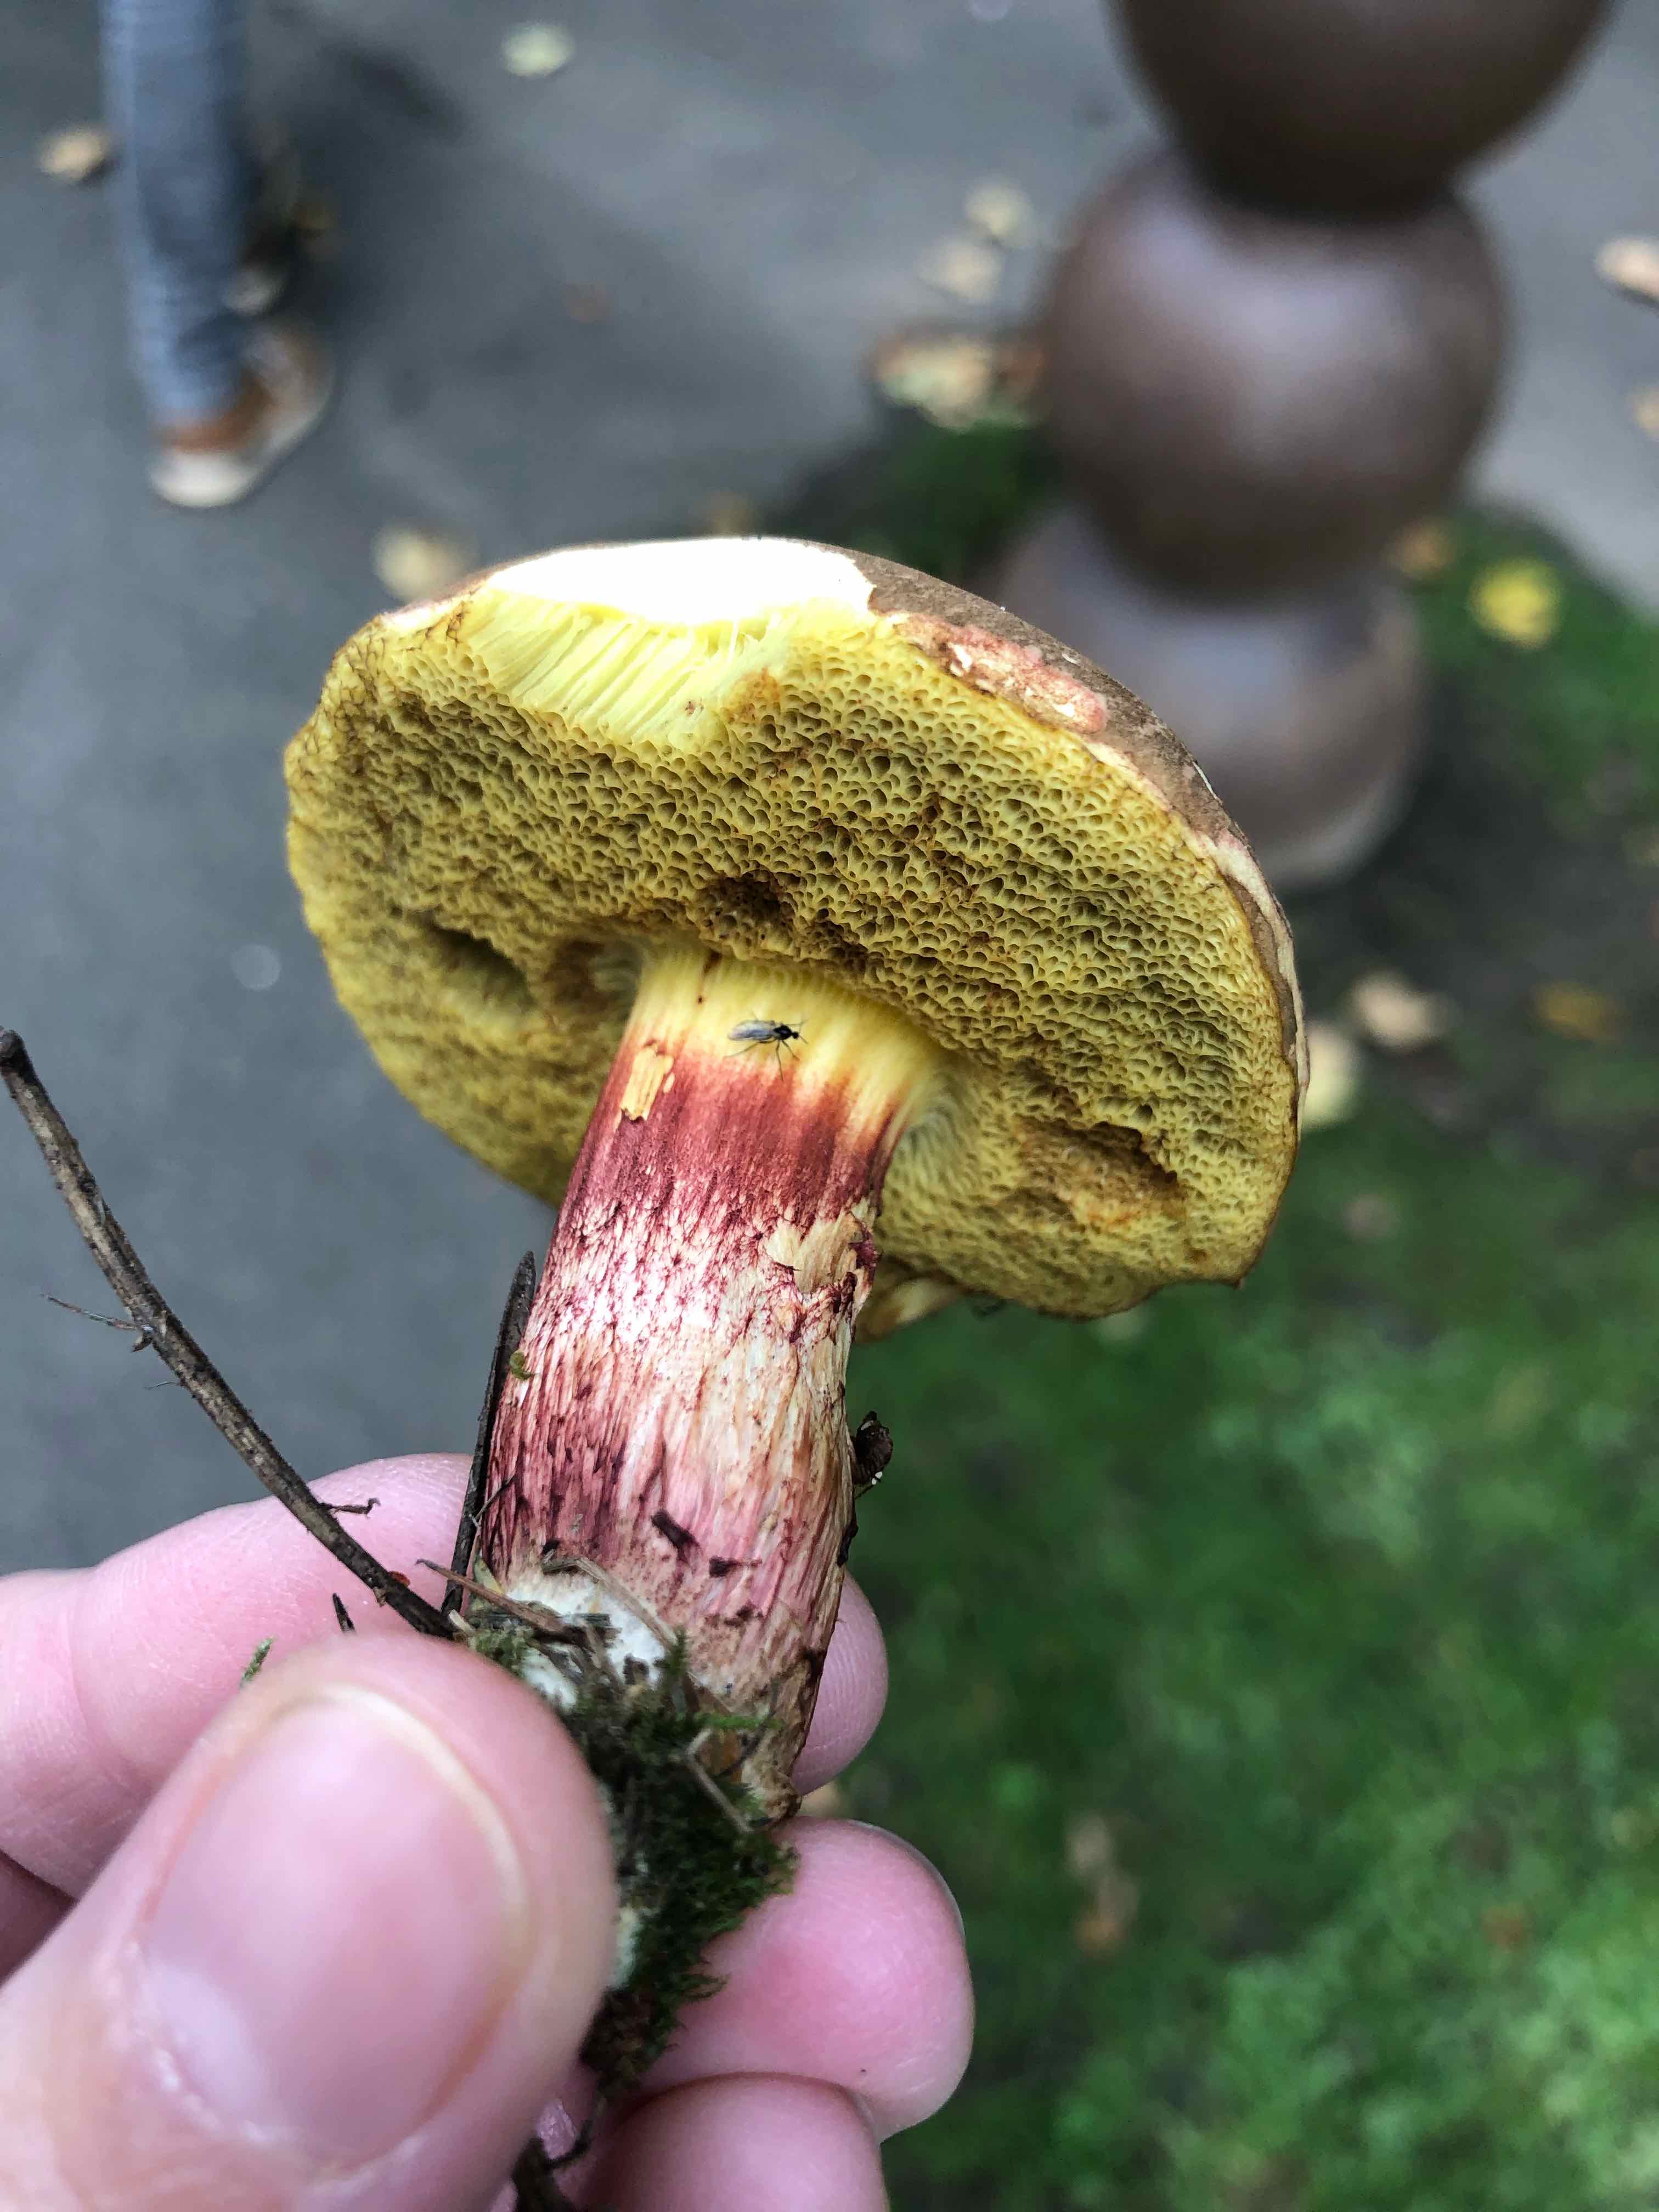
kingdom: Fungi
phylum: Basidiomycota
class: Agaricomycetes
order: Boletales
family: Boletaceae
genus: Xerocomellus
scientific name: Xerocomellus chrysenteron
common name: rødsprukken rørhat
